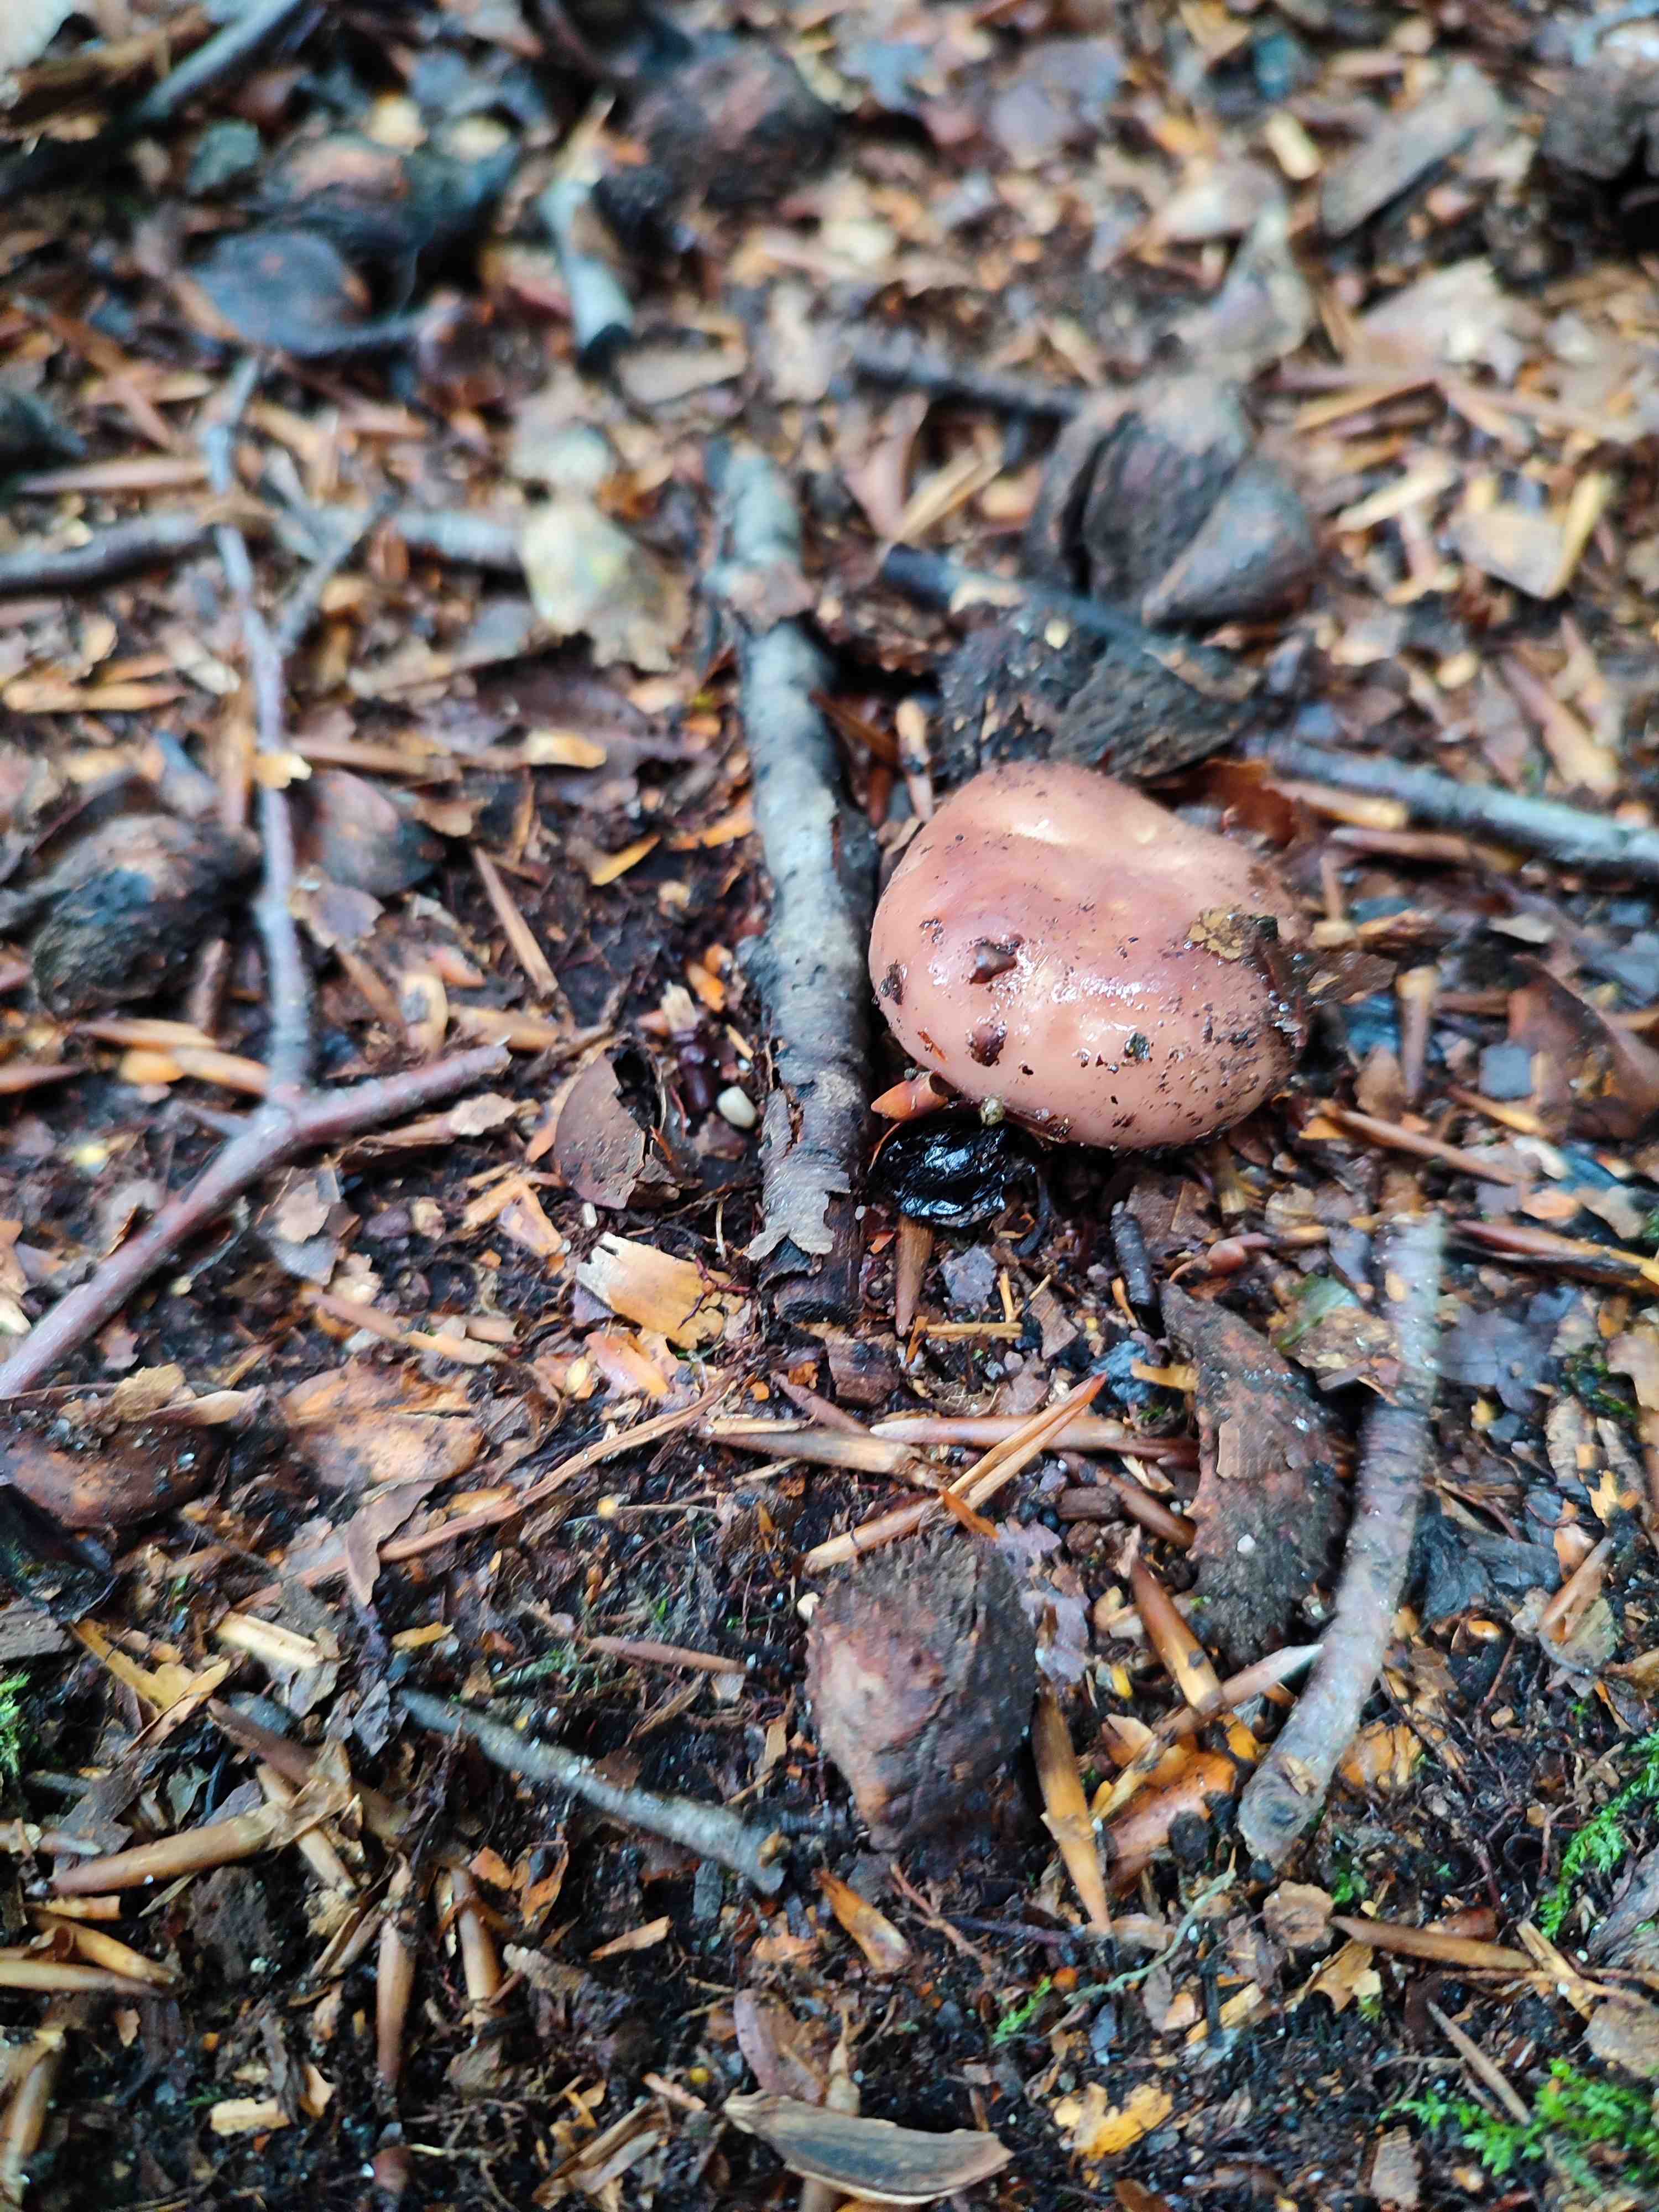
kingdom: Fungi
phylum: Basidiomycota
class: Agaricomycetes
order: Russulales
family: Russulaceae
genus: Russula
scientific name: Russula vesca
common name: spiselig skørhat
